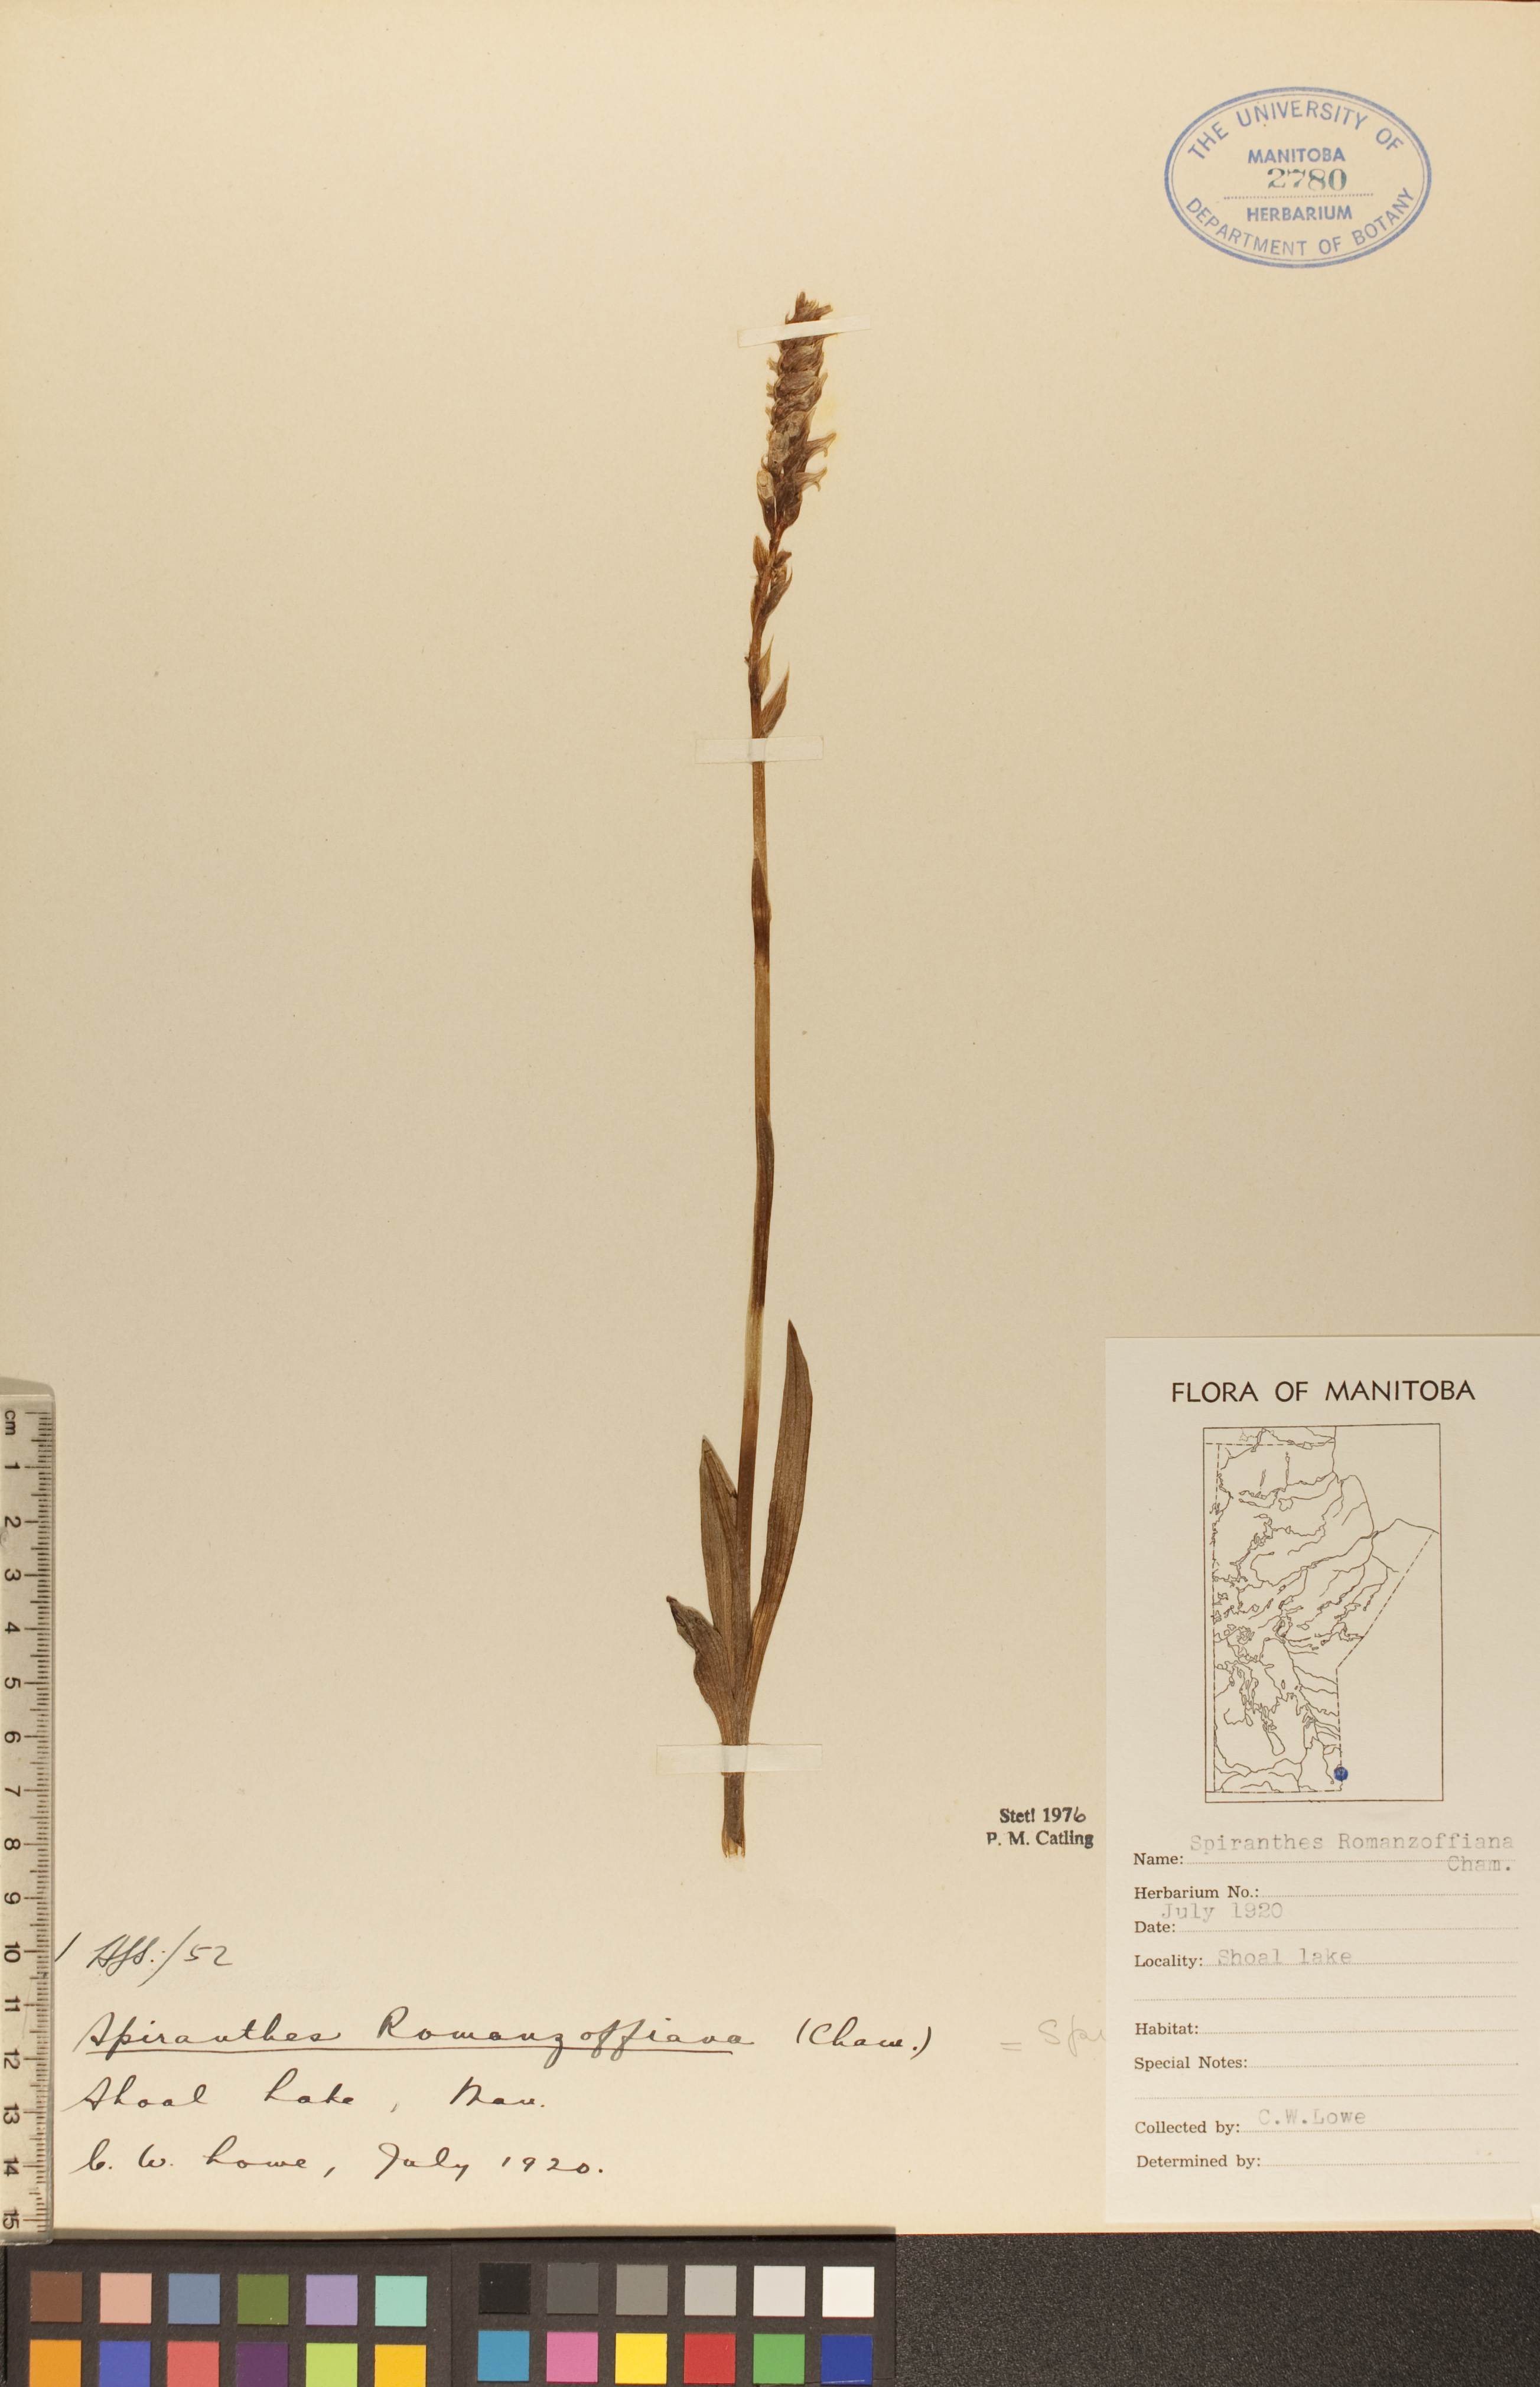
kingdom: Plantae
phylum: Tracheophyta
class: Liliopsida
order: Asparagales
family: Orchidaceae
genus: Spiranthes
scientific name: Spiranthes romanzoffiana
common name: Irish lady's-tresses
